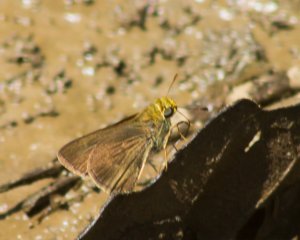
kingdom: Animalia
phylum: Arthropoda
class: Insecta
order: Lepidoptera
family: Hesperiidae
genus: Euphyes
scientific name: Euphyes vestris
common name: Dun Skipper
